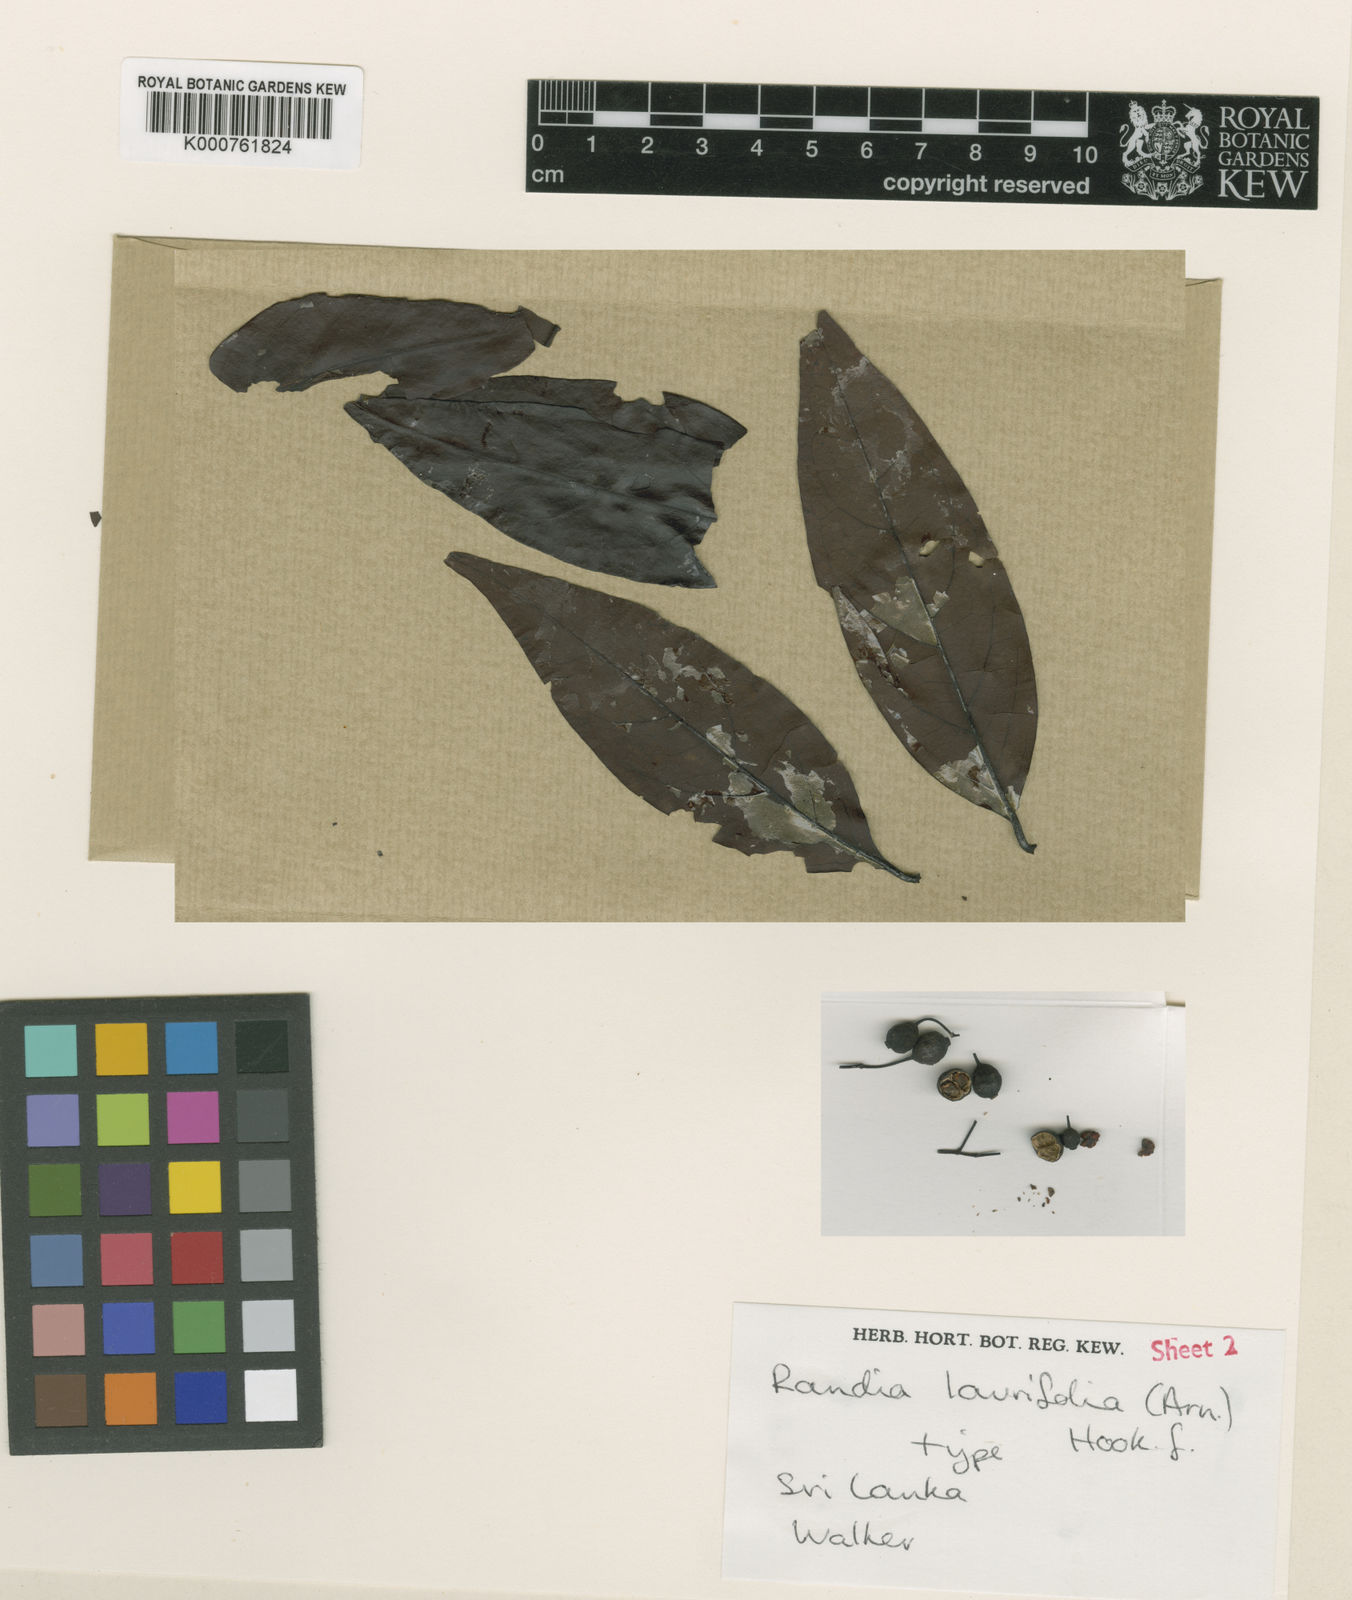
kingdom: Plantae
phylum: Tracheophyta
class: Magnoliopsida
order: Gentianales
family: Rubiaceae
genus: Aidia
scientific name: Aidia gardneri
